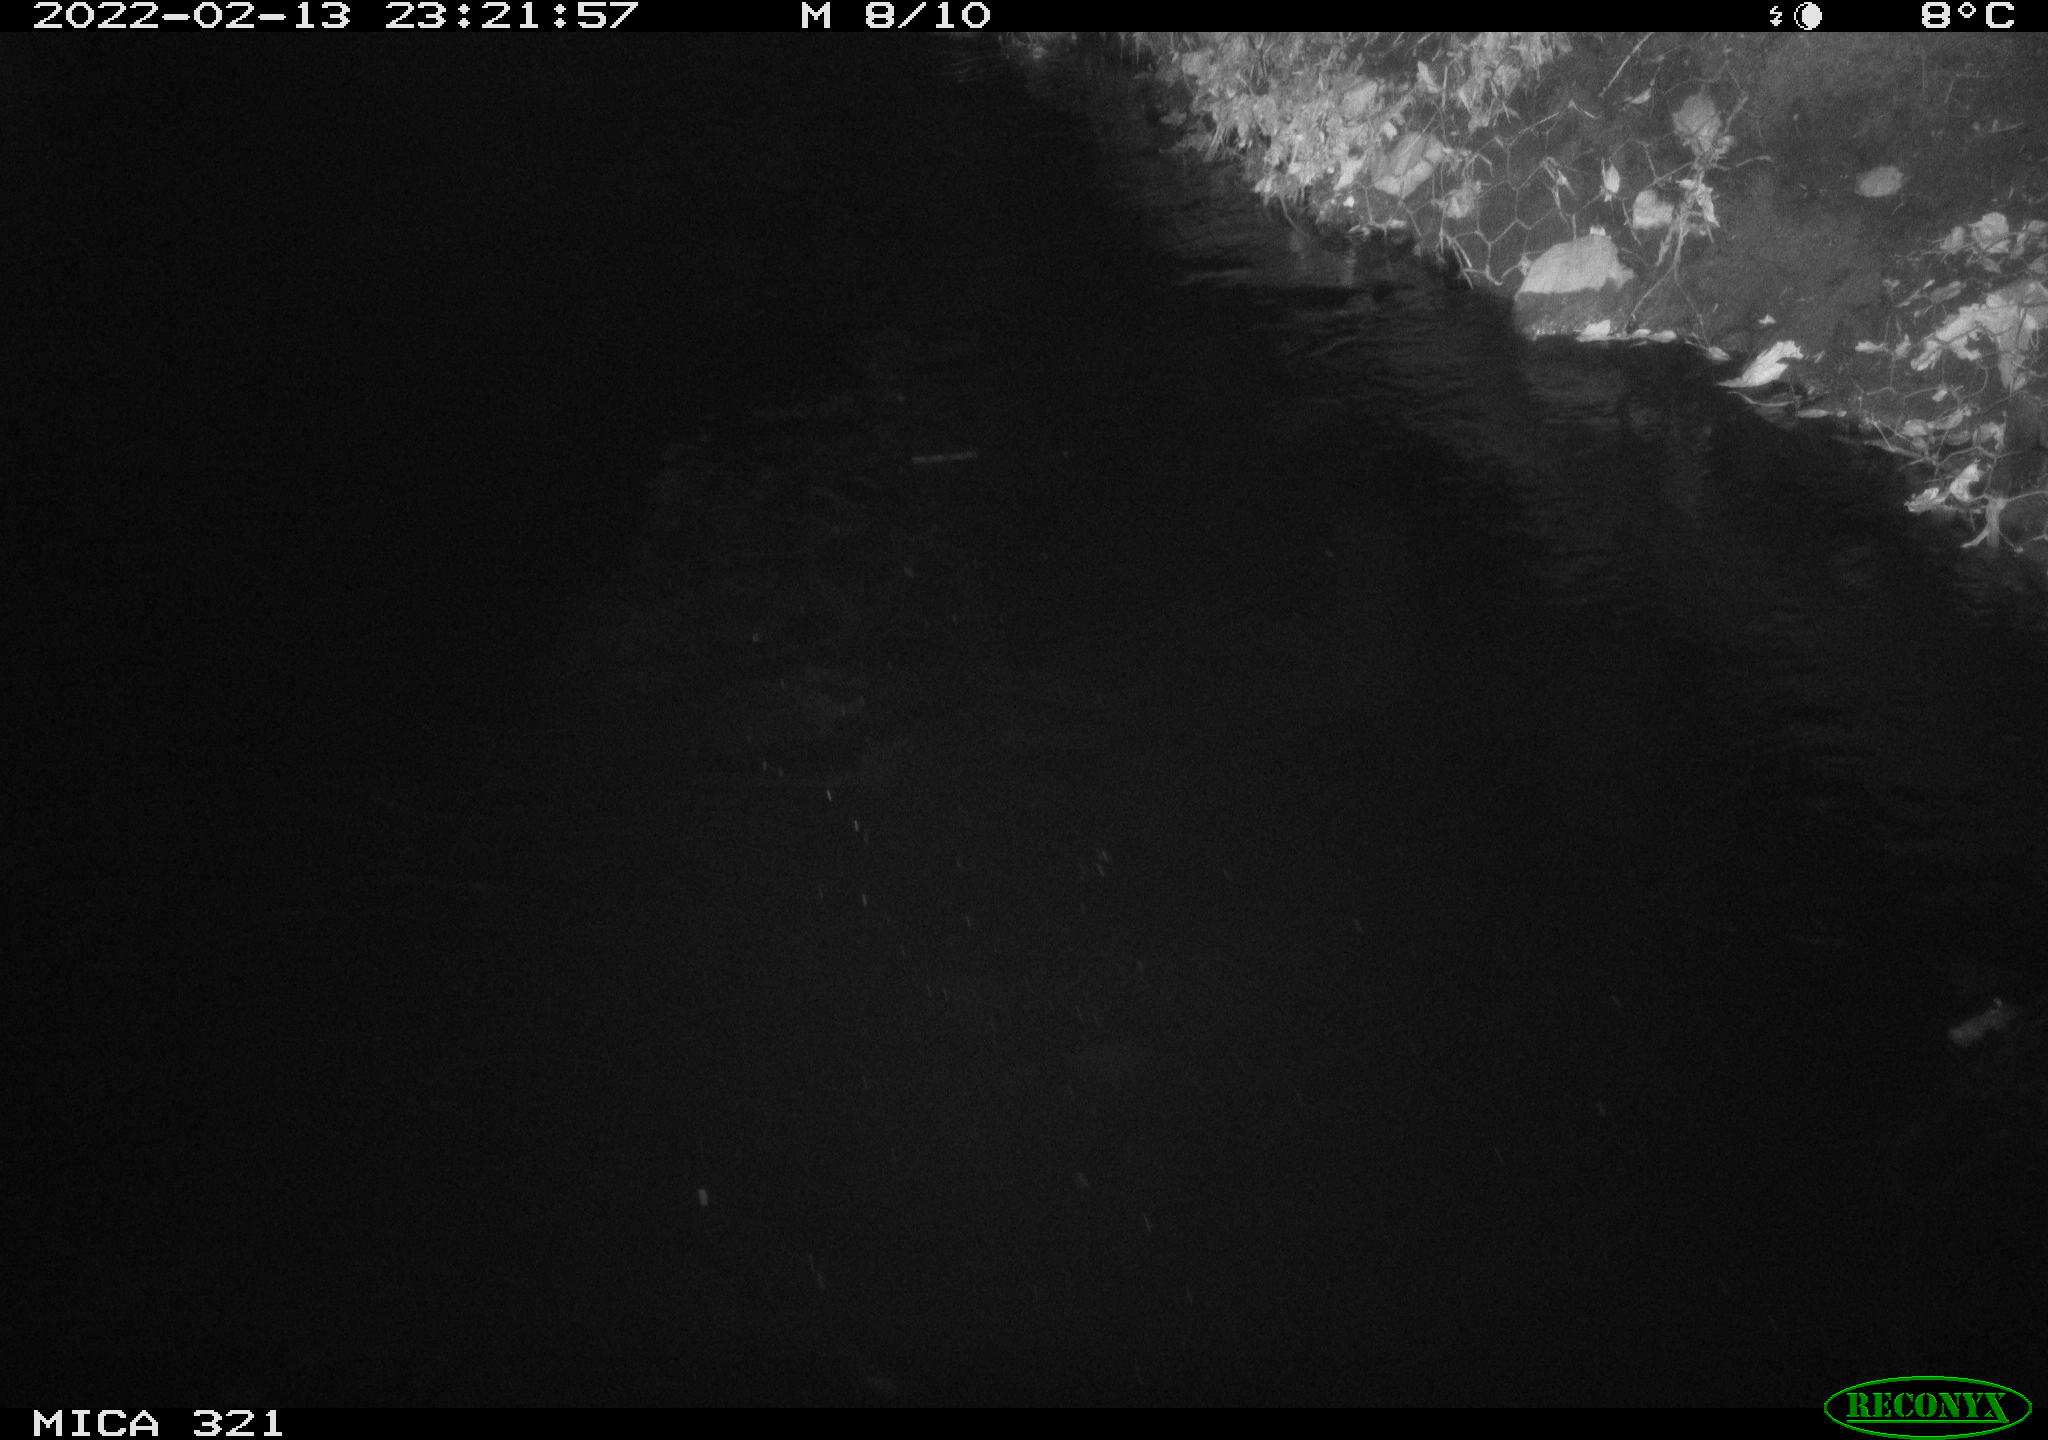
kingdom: Animalia
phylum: Chordata
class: Aves
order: Anseriformes
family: Anatidae
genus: Anas
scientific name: Anas platyrhynchos
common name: Mallard
